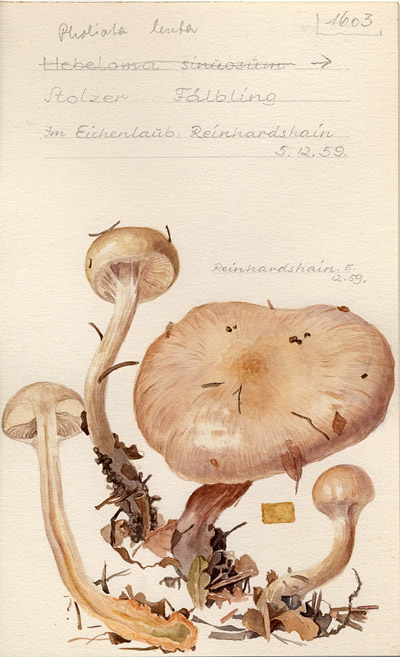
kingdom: Fungi
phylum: Basidiomycota
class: Agaricomycetes
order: Agaricales
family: Strophariaceae
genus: Pholiota
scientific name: Pholiota lenta
